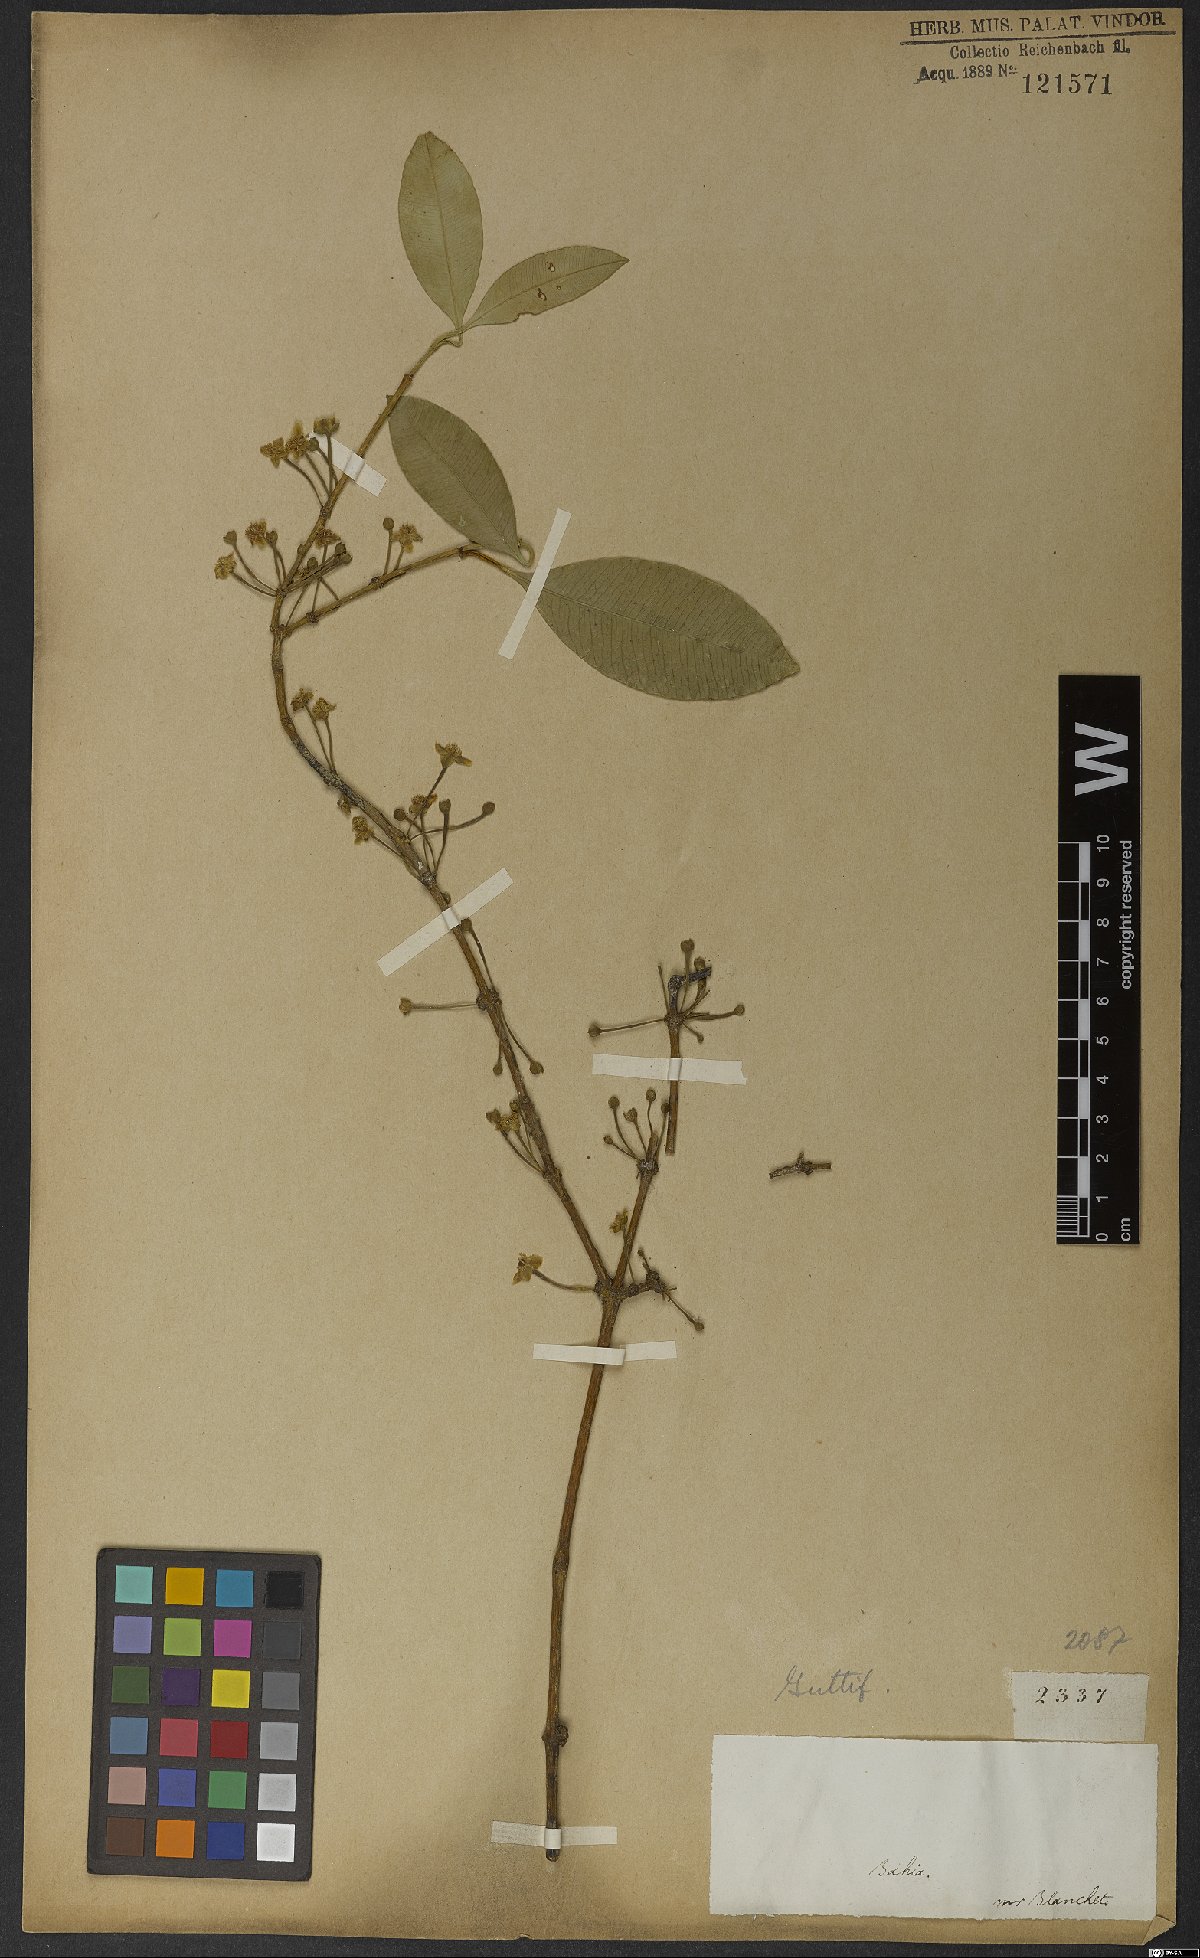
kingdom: Plantae
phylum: Tracheophyta
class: Magnoliopsida
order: Malpighiales
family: Clusiaceae
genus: Garcinia
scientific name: Garcinia gardneriana
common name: Achacha
